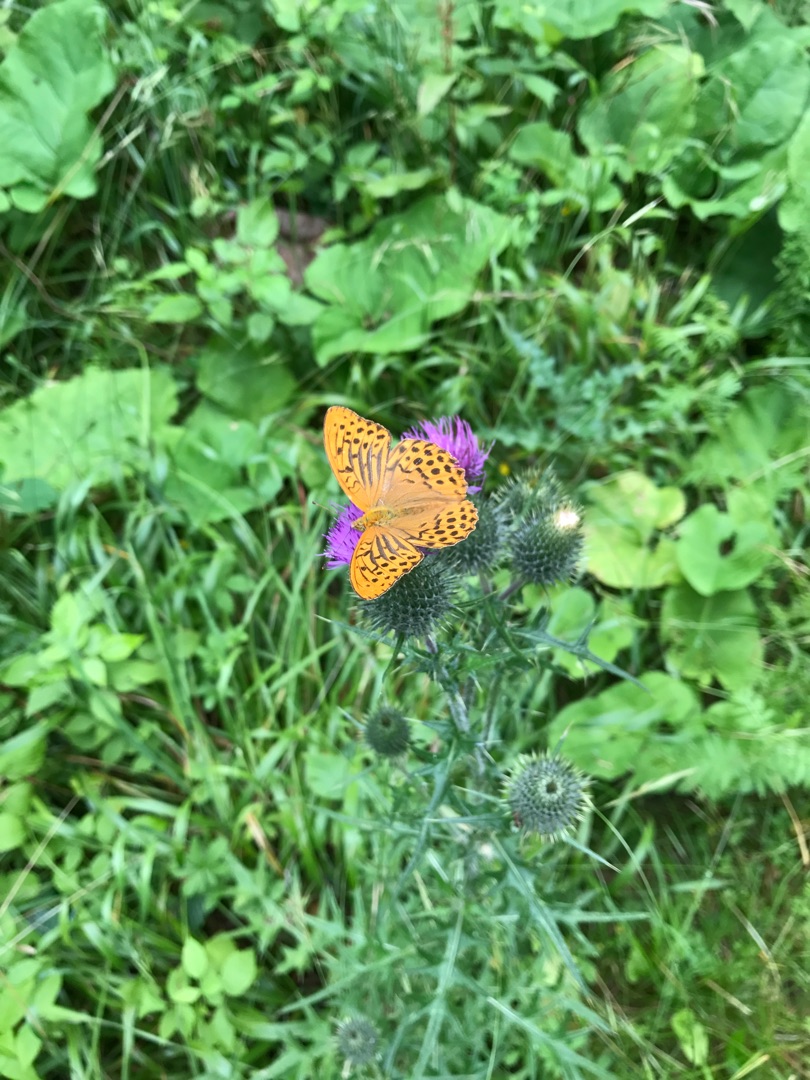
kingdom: Animalia
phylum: Arthropoda
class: Insecta
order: Lepidoptera
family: Nymphalidae
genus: Argynnis
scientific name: Argynnis paphia
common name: Kejserkåbe
